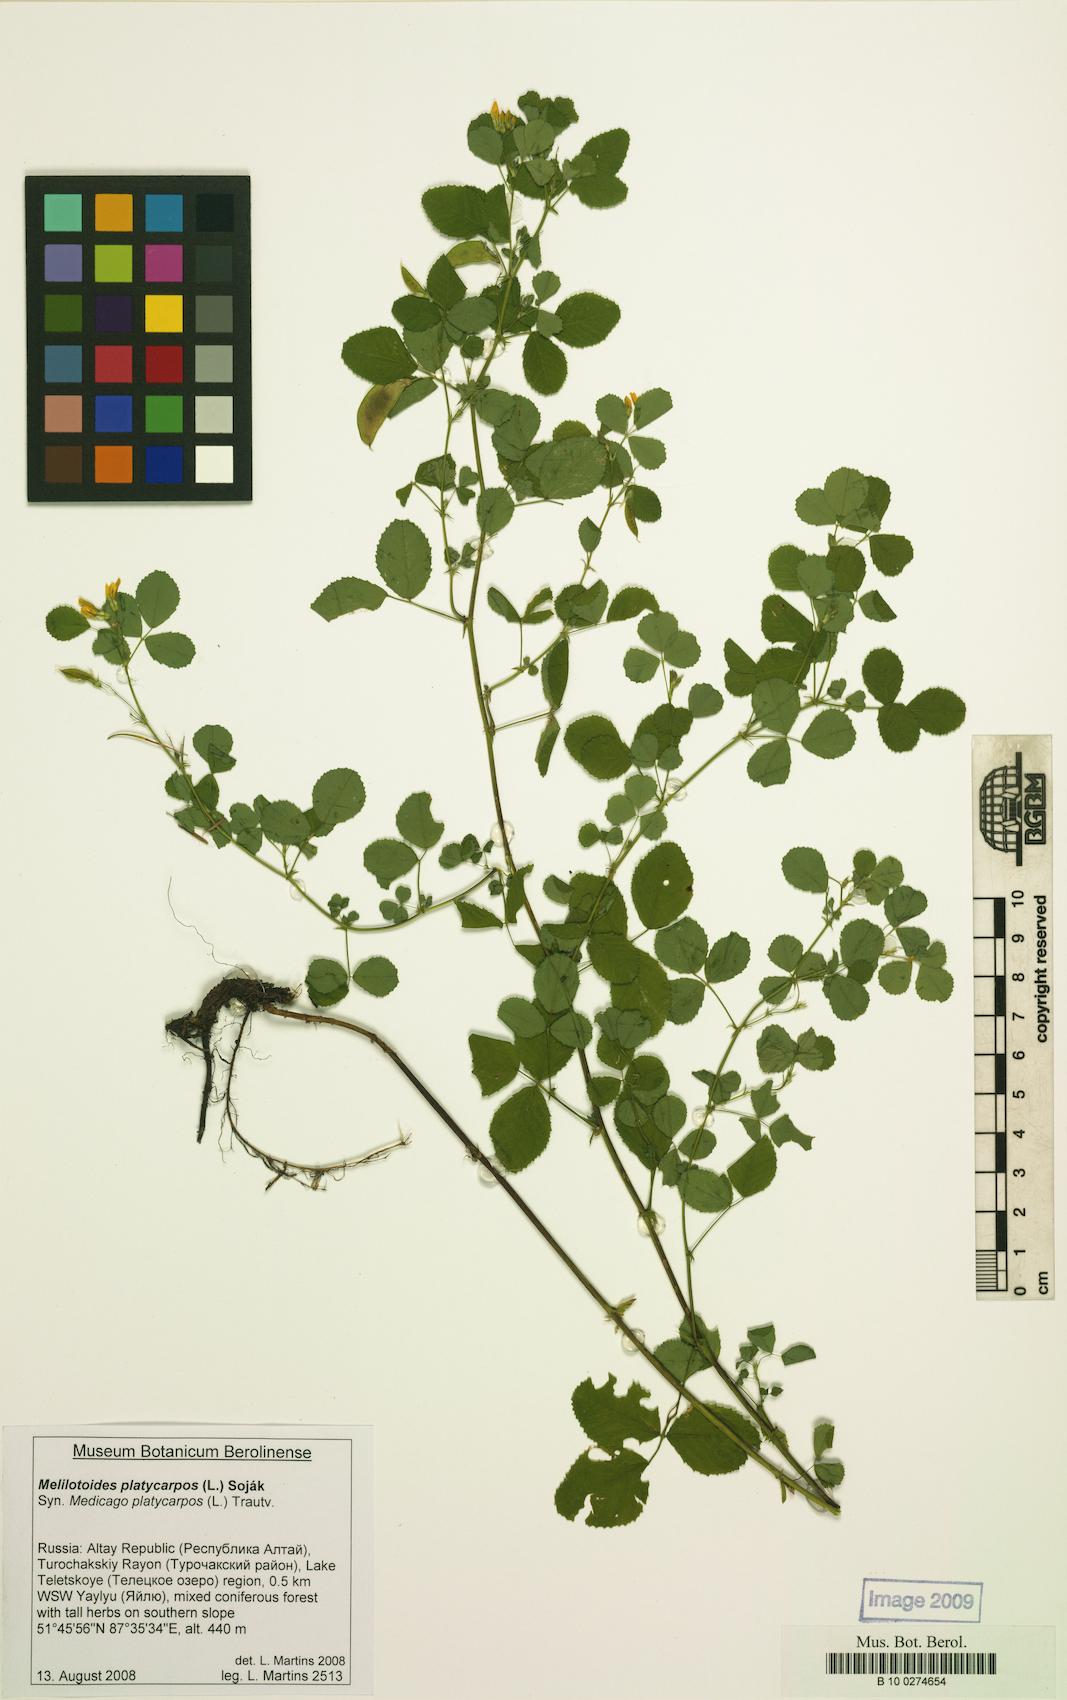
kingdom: Plantae
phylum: Tracheophyta
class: Magnoliopsida
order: Fabales
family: Fabaceae
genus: Medicago
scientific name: Medicago platycarpos
